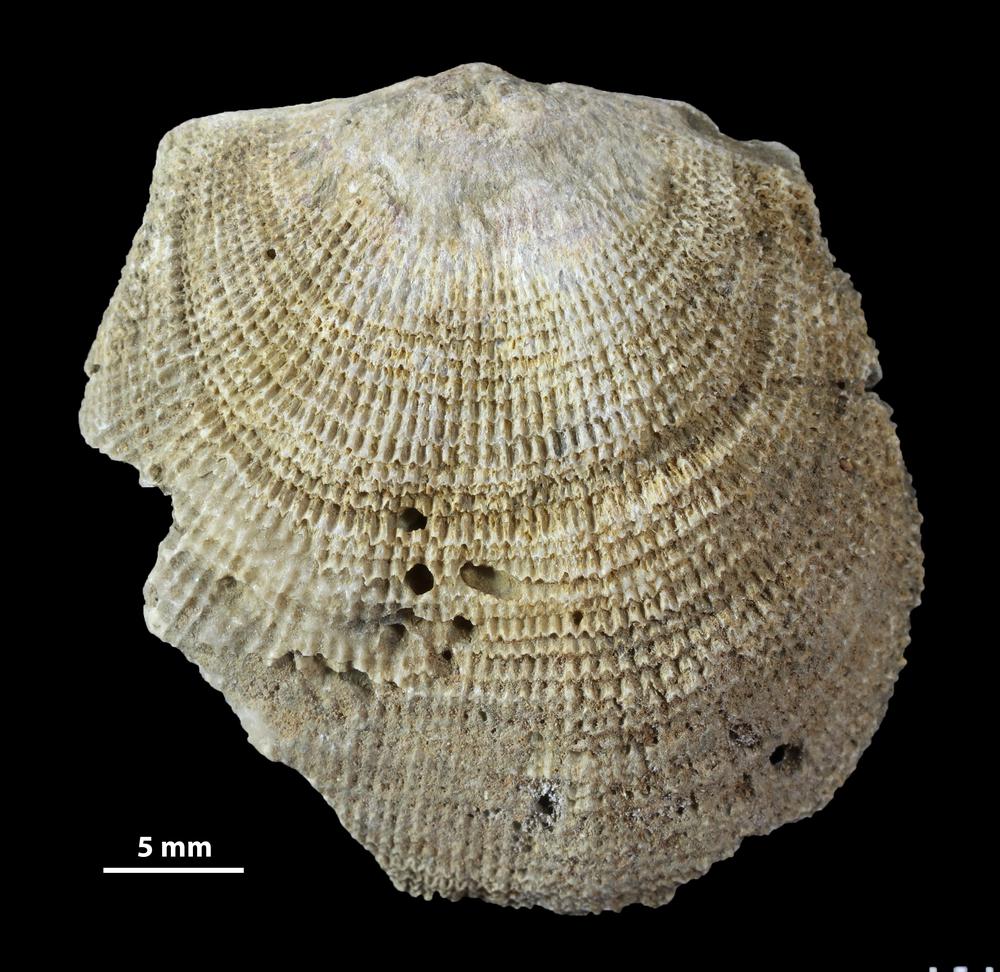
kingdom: Animalia
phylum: Brachiopoda
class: Rhynchonellata
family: Clitambonitidae
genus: Clitambonites
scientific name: Clitambonites
